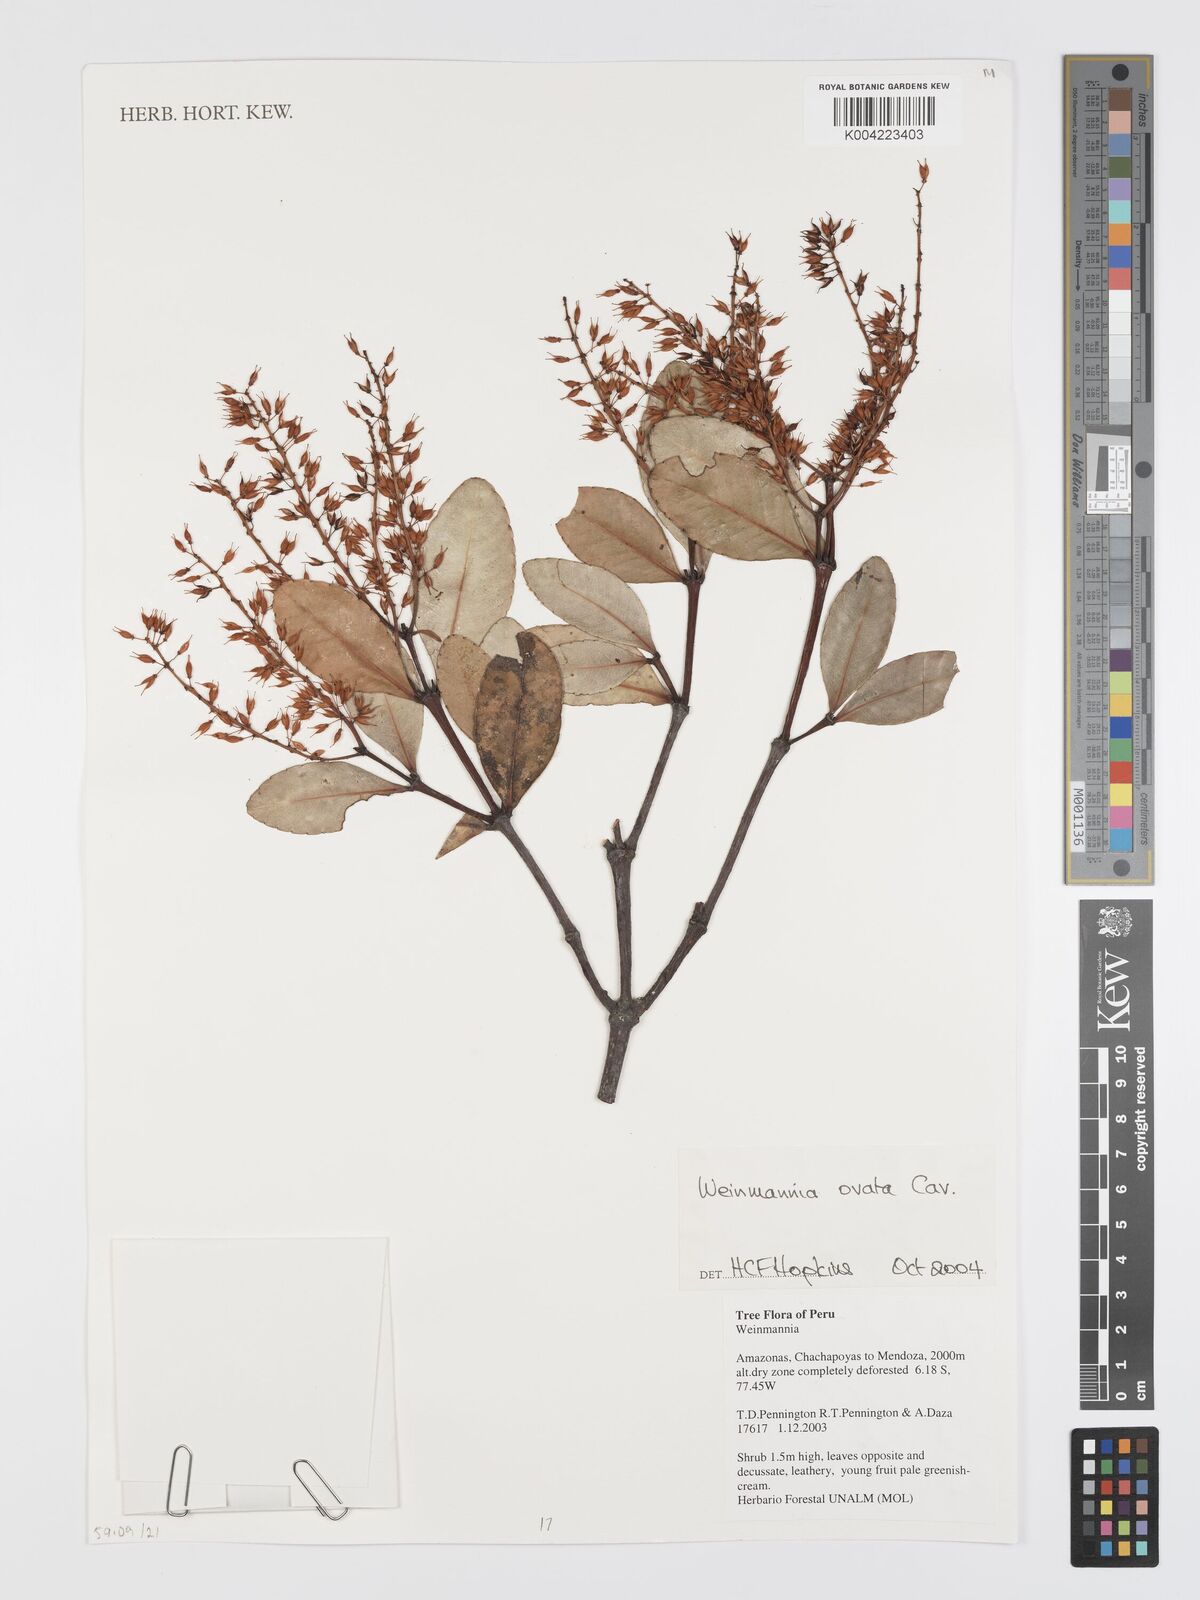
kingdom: Plantae
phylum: Tracheophyta
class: Magnoliopsida
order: Oxalidales
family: Cunoniaceae
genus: Weinmannia
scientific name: Weinmannia ovata
